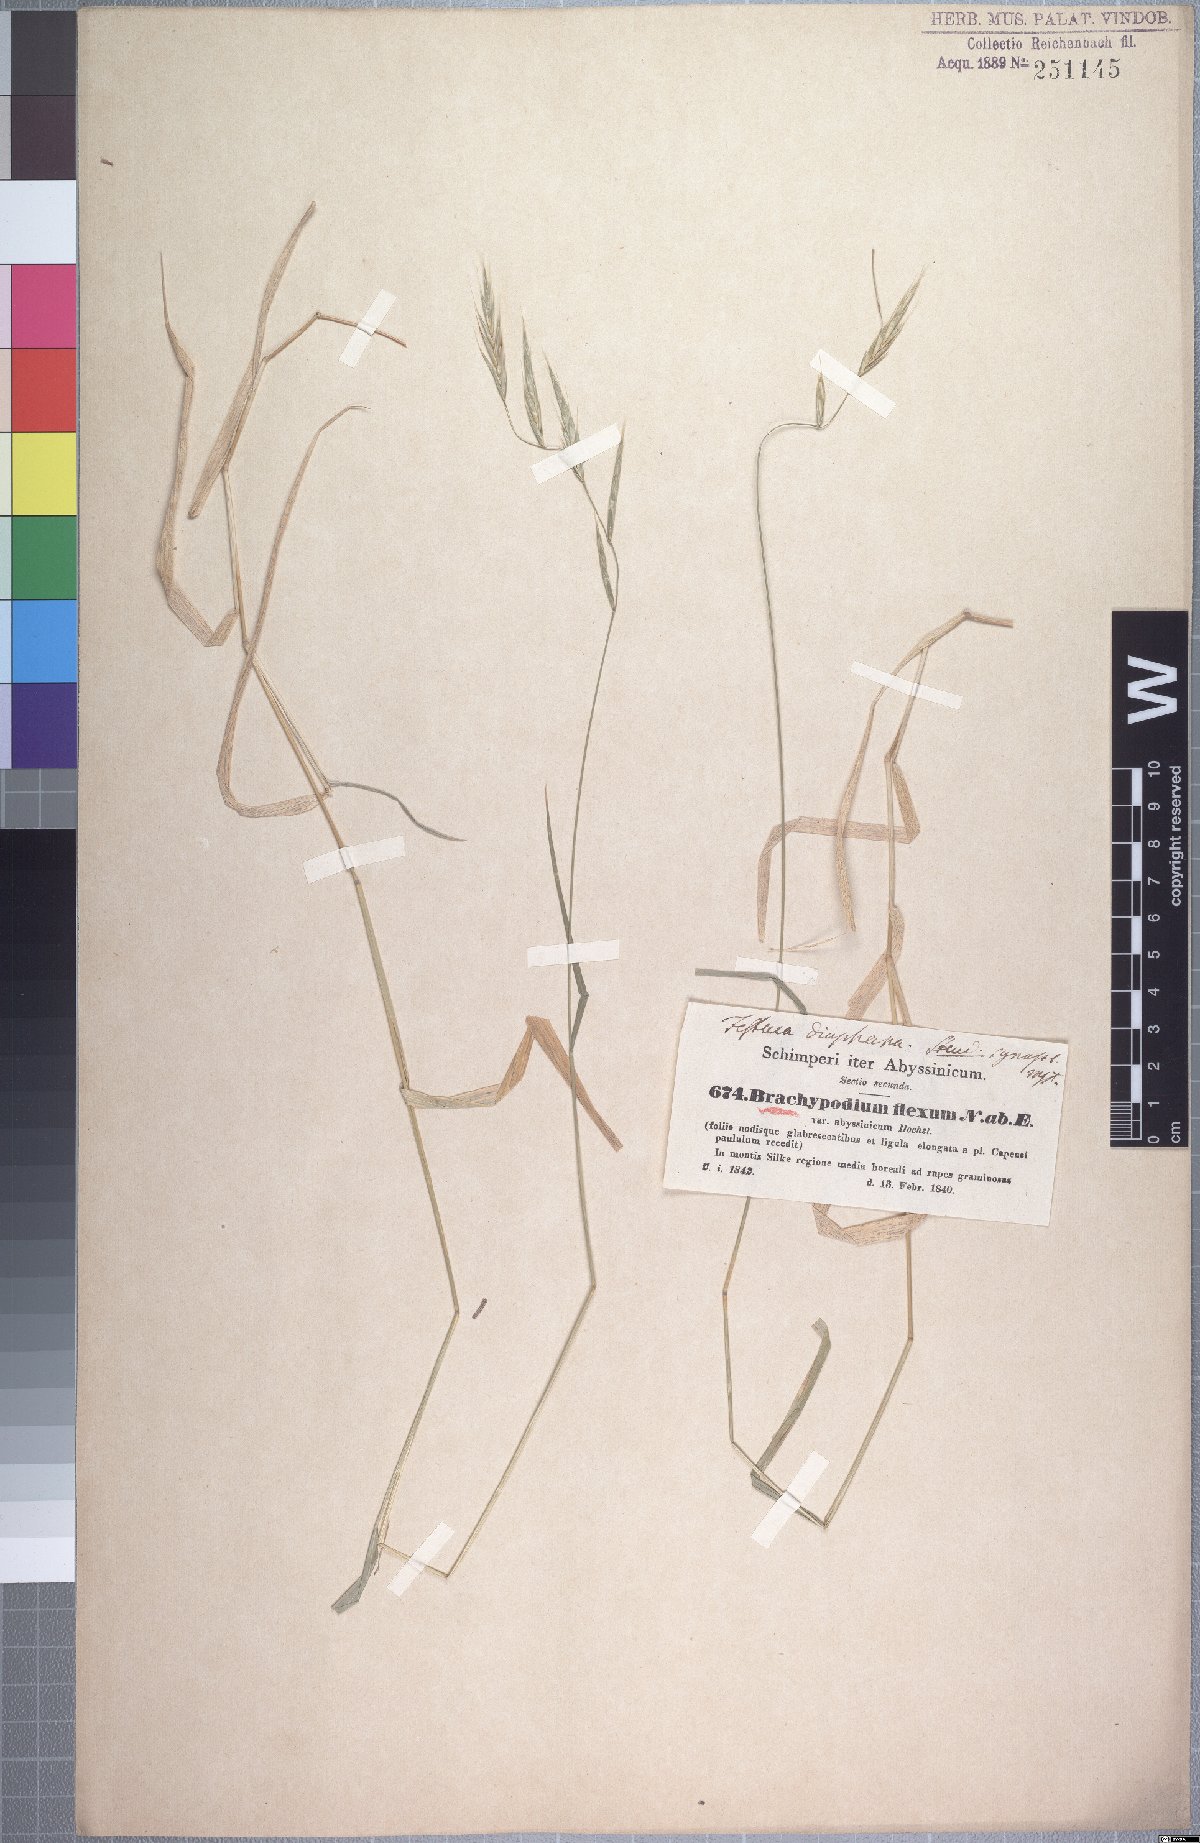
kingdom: Plantae
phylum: Tracheophyta
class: Liliopsida
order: Poales
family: Poaceae
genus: Brachypodium
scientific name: Brachypodium flexum
